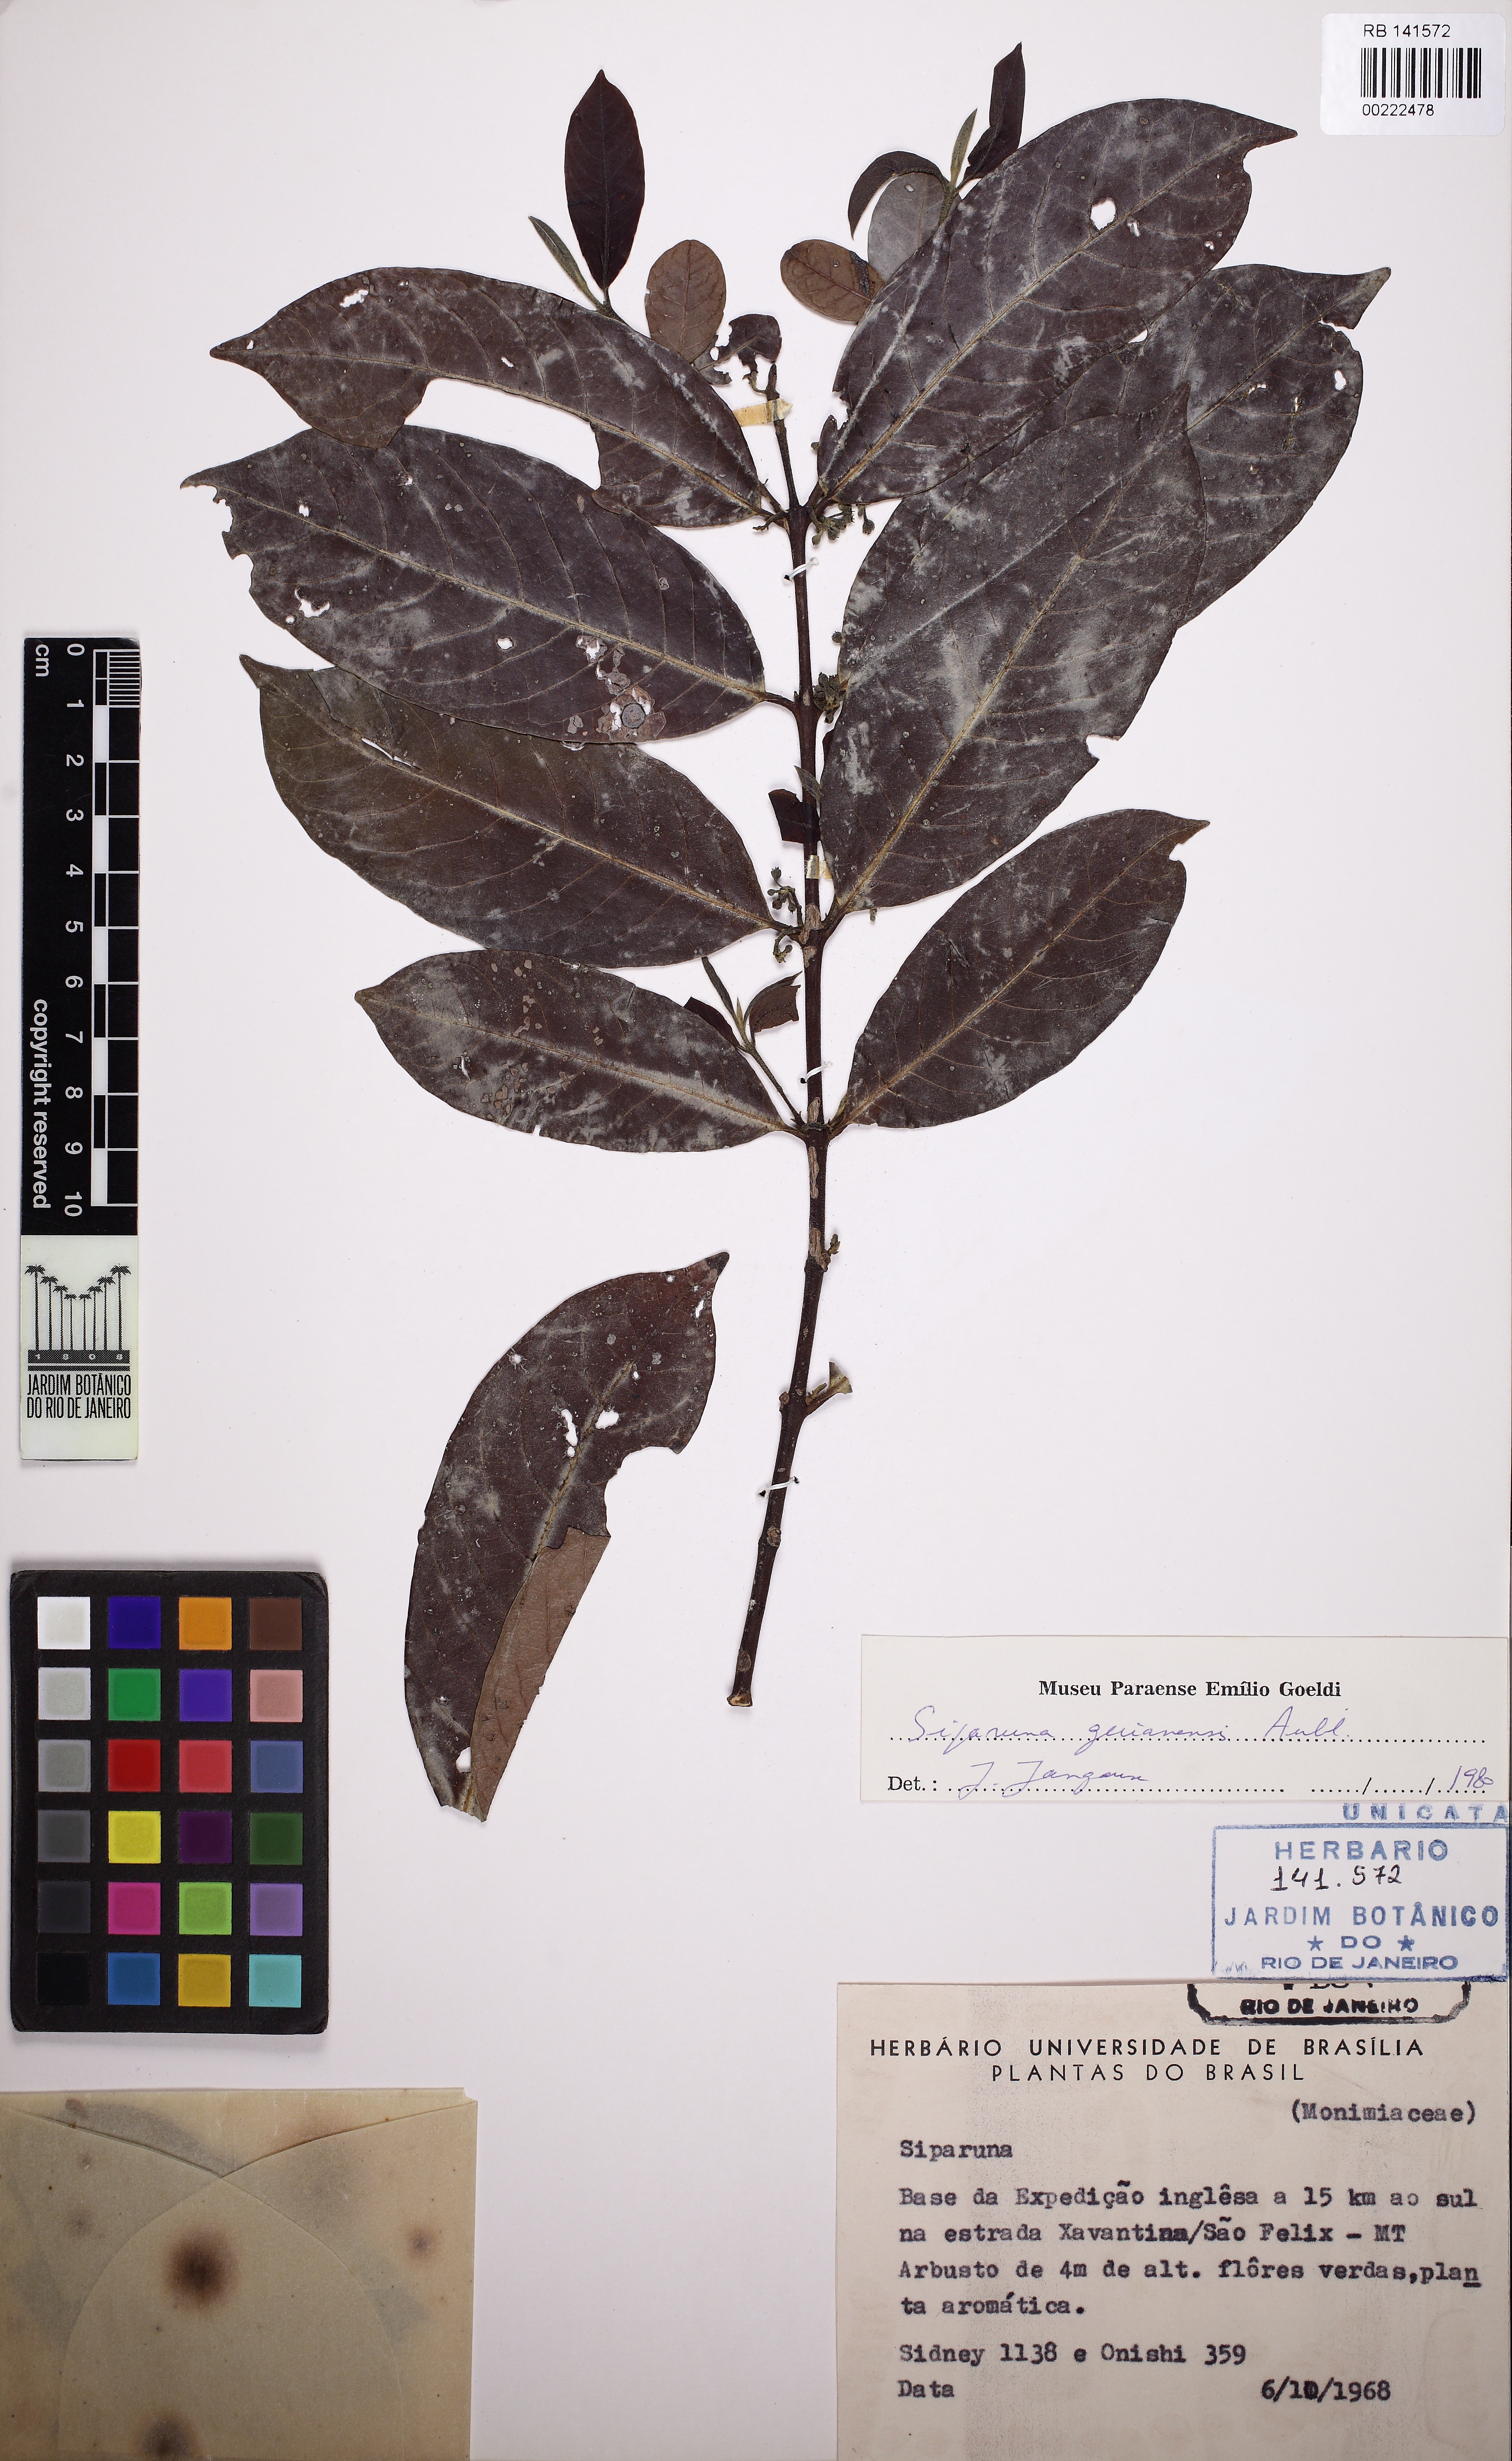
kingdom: Plantae
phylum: Tracheophyta
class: Magnoliopsida
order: Laurales
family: Siparunaceae
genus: Siparuna
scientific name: Siparuna guianensis
